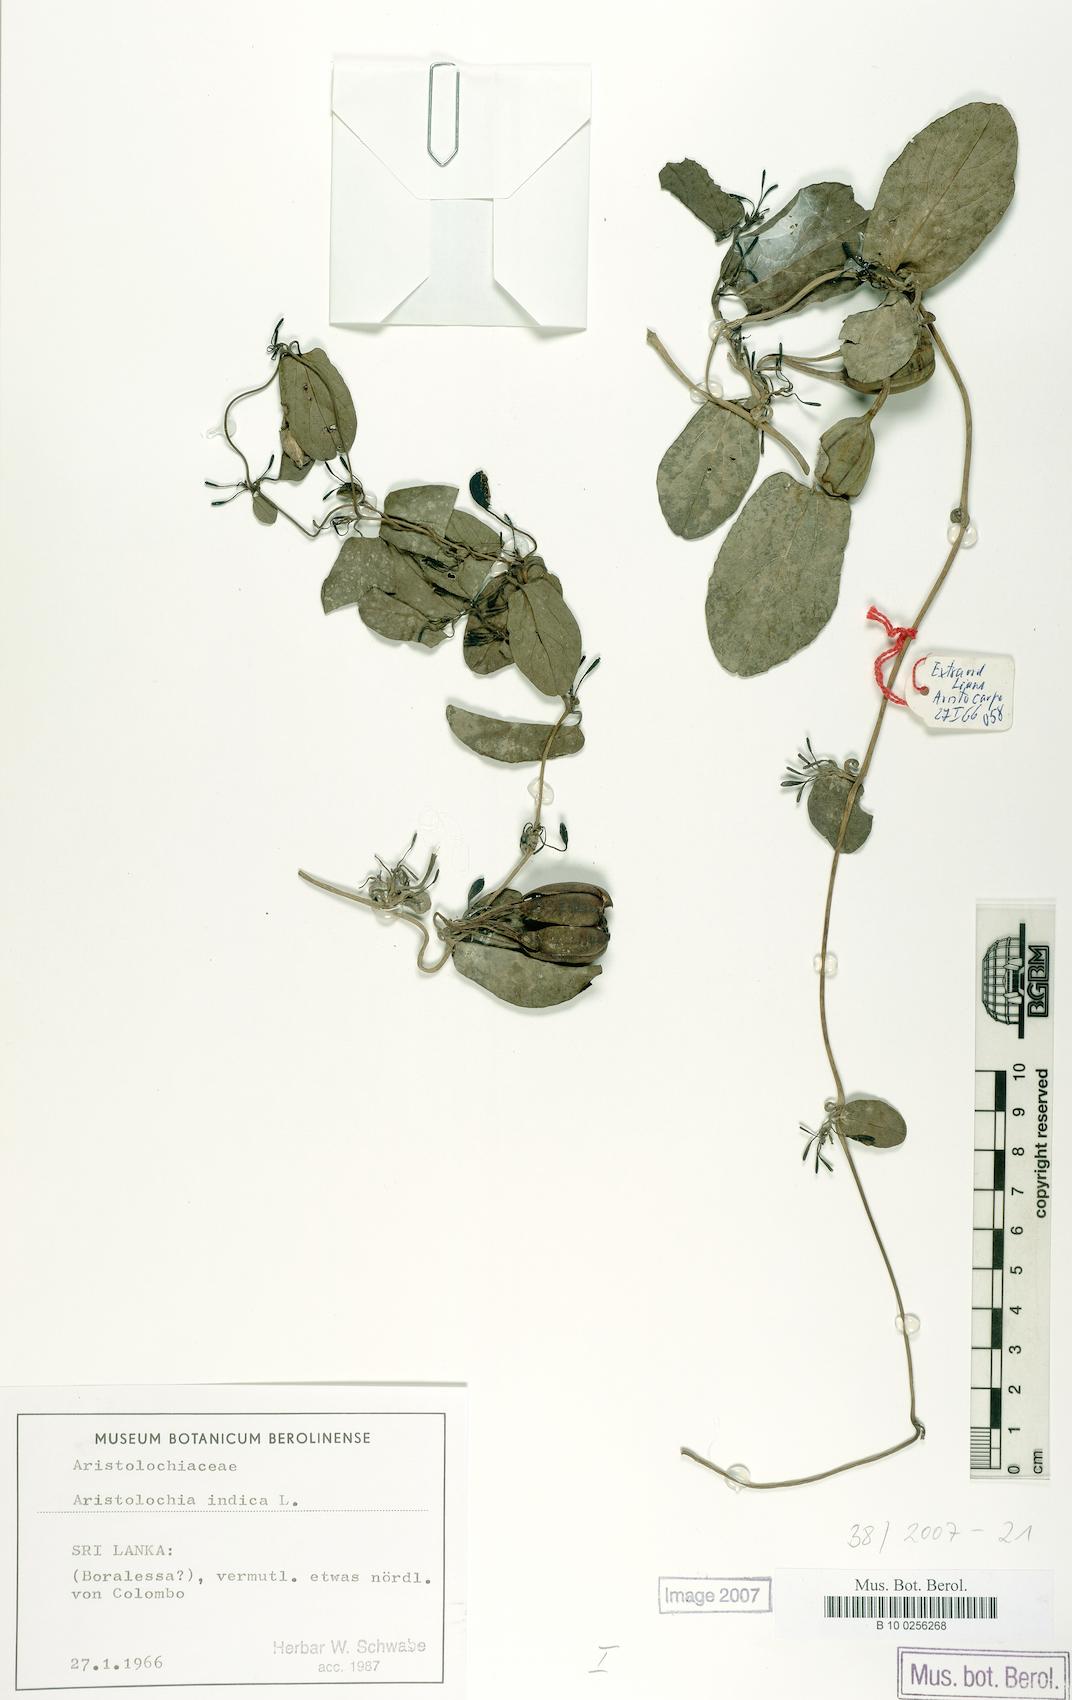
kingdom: Plantae
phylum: Tracheophyta
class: Magnoliopsida
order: Piperales
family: Aristolochiaceae
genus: Aristolochia
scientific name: Aristolochia indica
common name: Indian birthwort
